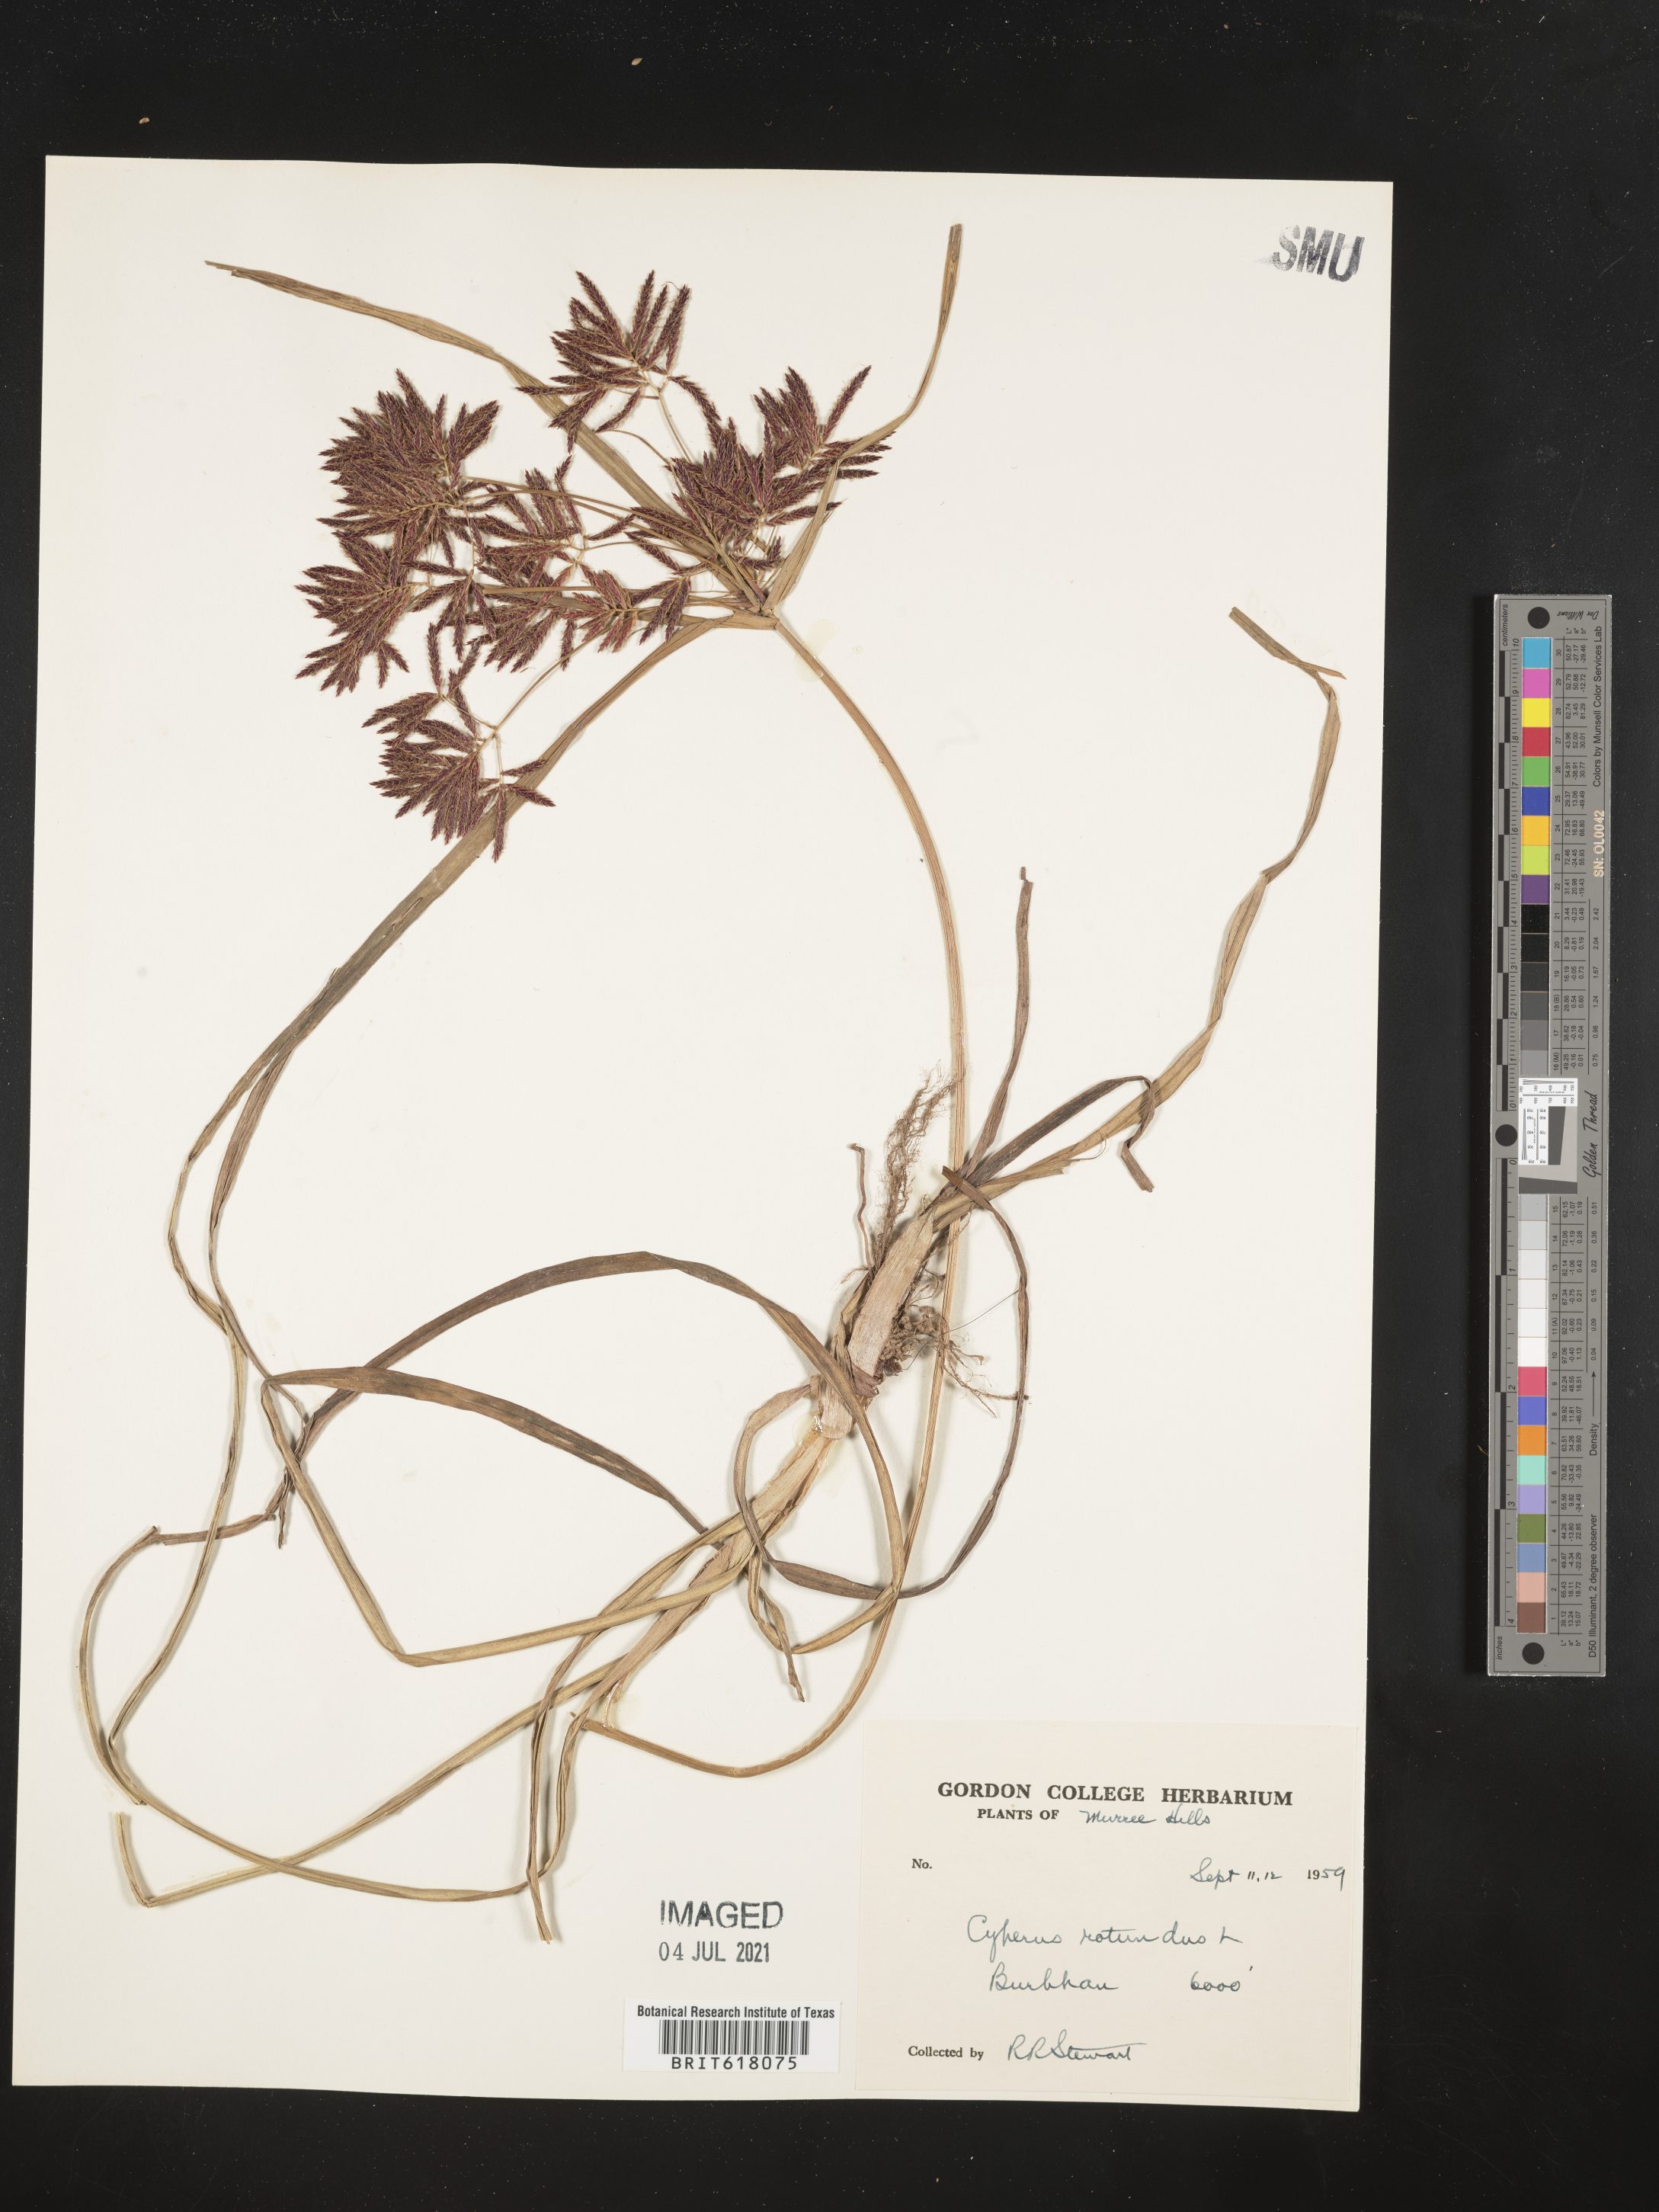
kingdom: Plantae
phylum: Tracheophyta
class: Liliopsida
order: Poales
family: Cyperaceae
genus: Cyperus
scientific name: Cyperus rotundus
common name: Nutgrass
